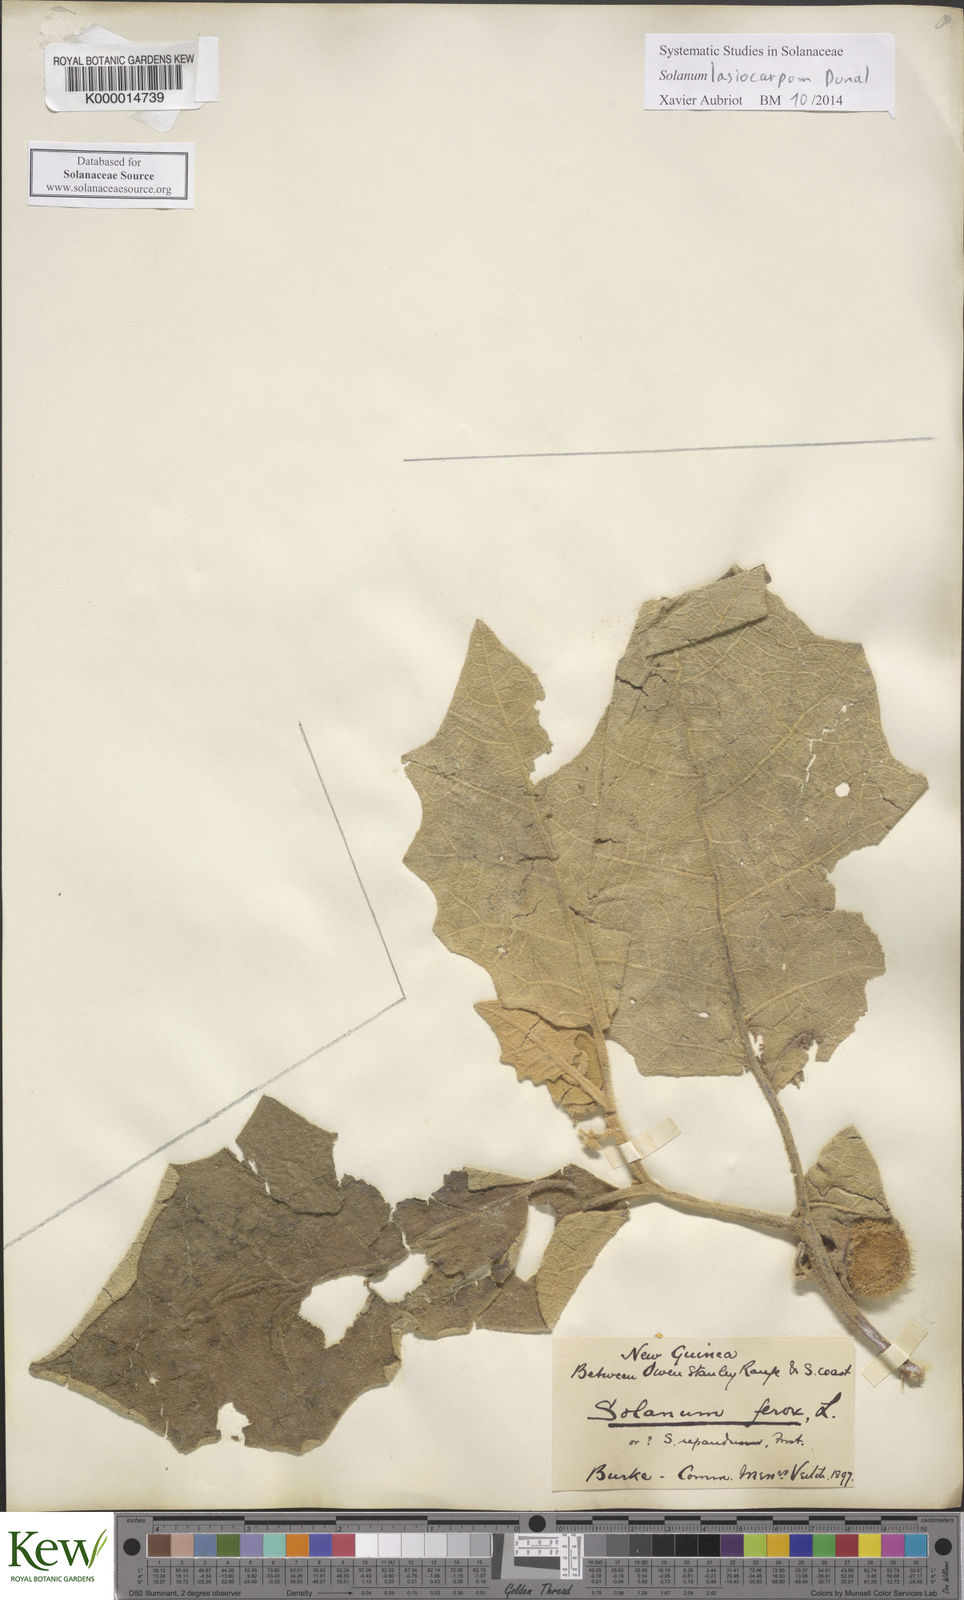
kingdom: Plantae
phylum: Tracheophyta
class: Magnoliopsida
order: Solanales
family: Solanaceae
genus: Solanum
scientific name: Solanum lasiocarpum
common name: Indian nightshade
